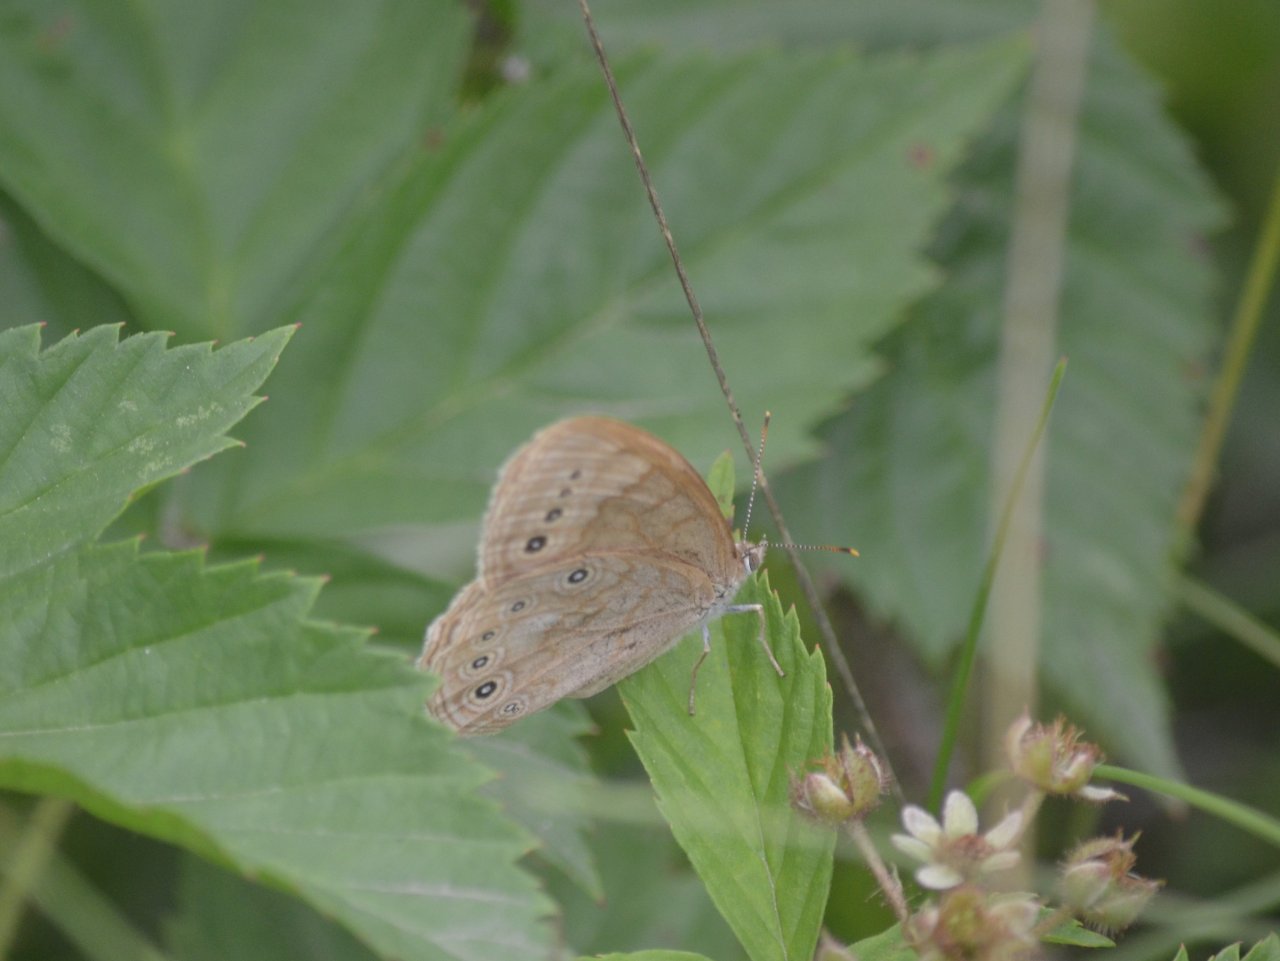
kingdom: Animalia
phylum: Arthropoda
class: Insecta
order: Lepidoptera
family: Nymphalidae
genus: Lethe
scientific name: Lethe eurydice
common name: Eyed Brown
